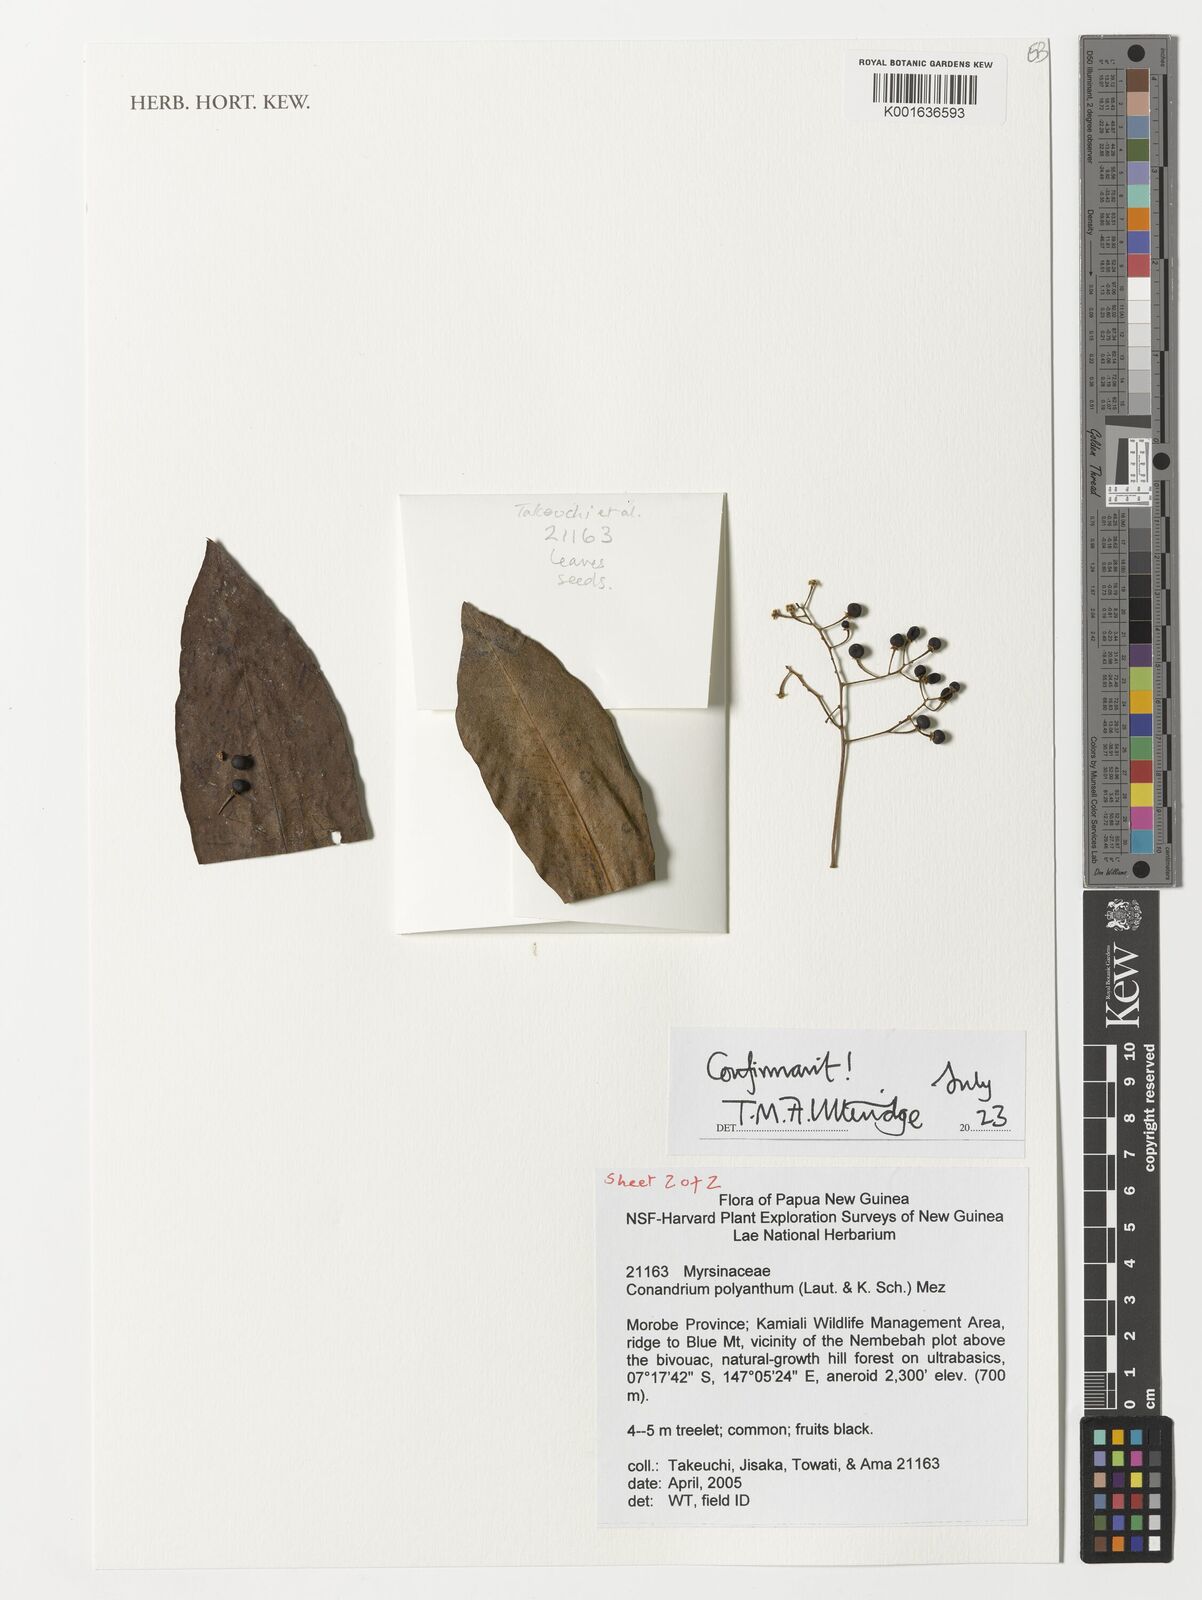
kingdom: Plantae
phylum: Tracheophyta
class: Magnoliopsida
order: Ericales
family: Primulaceae
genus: Conandrium
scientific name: Conandrium polyanthum
